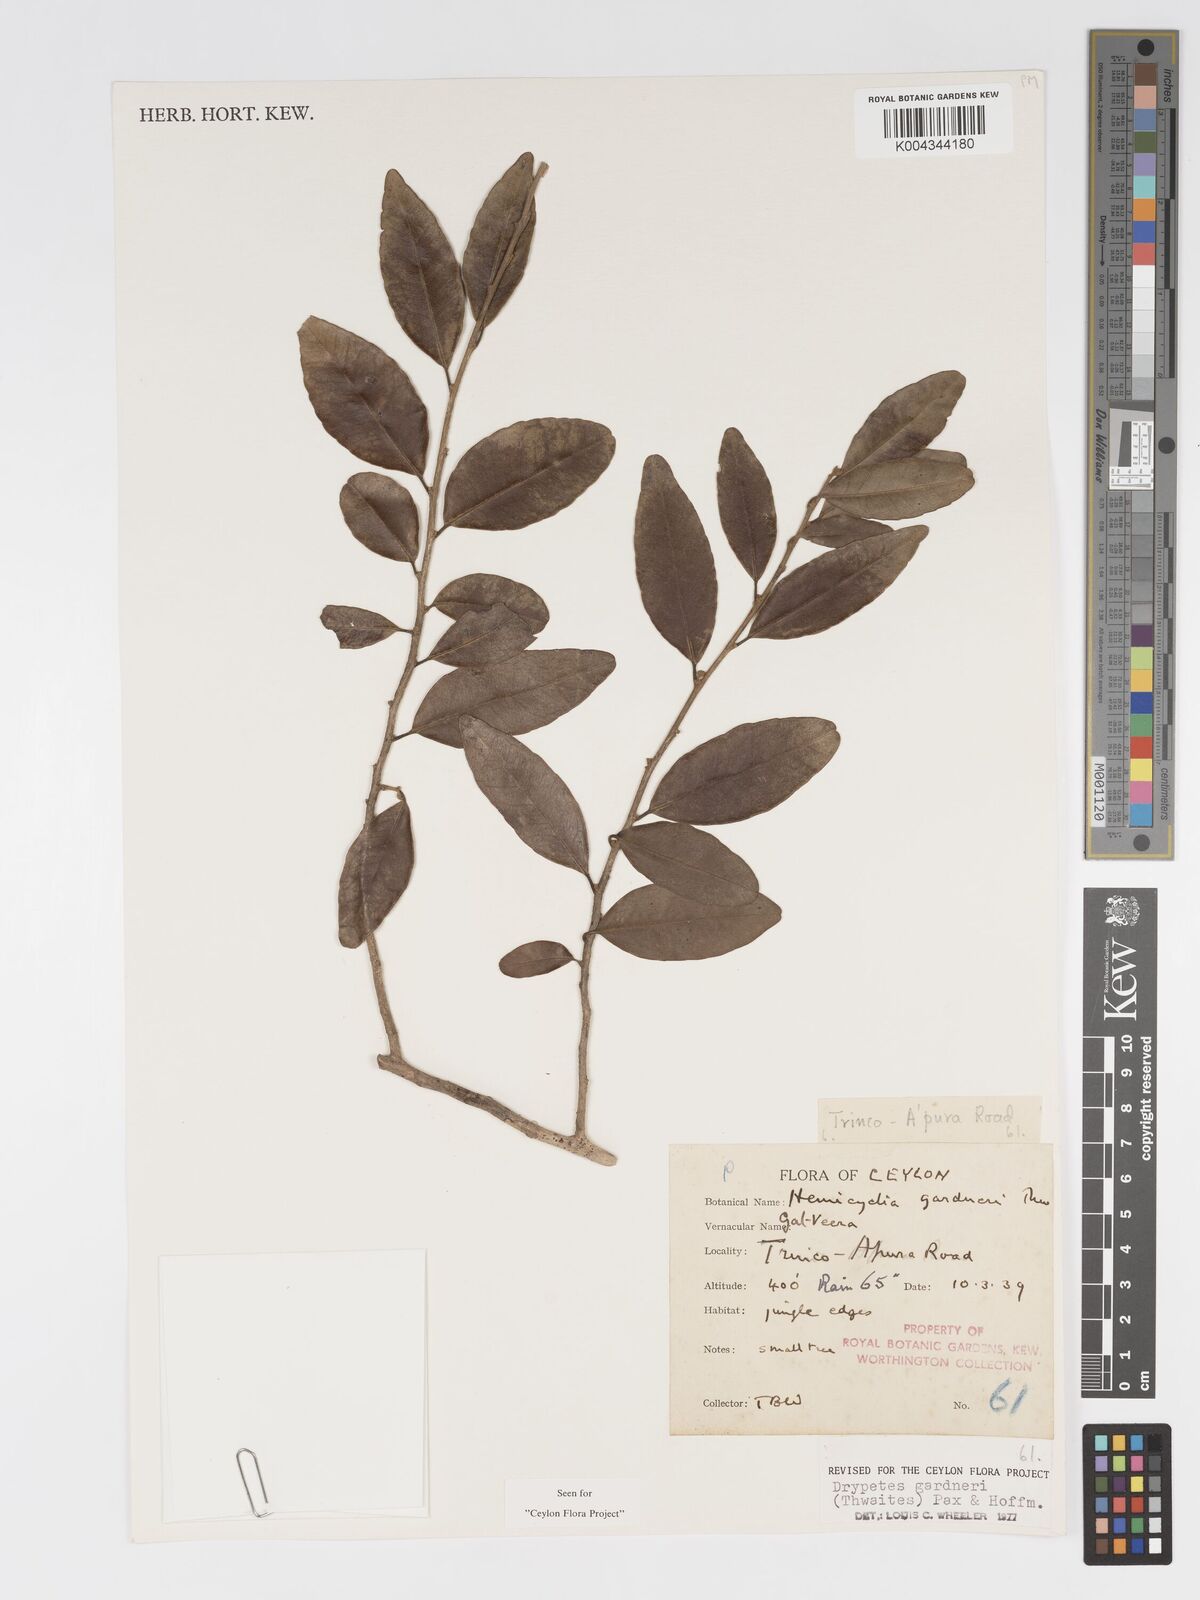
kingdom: Plantae
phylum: Tracheophyta
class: Magnoliopsida
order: Malpighiales
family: Putranjivaceae
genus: Drypetes
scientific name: Drypetes gardneri
